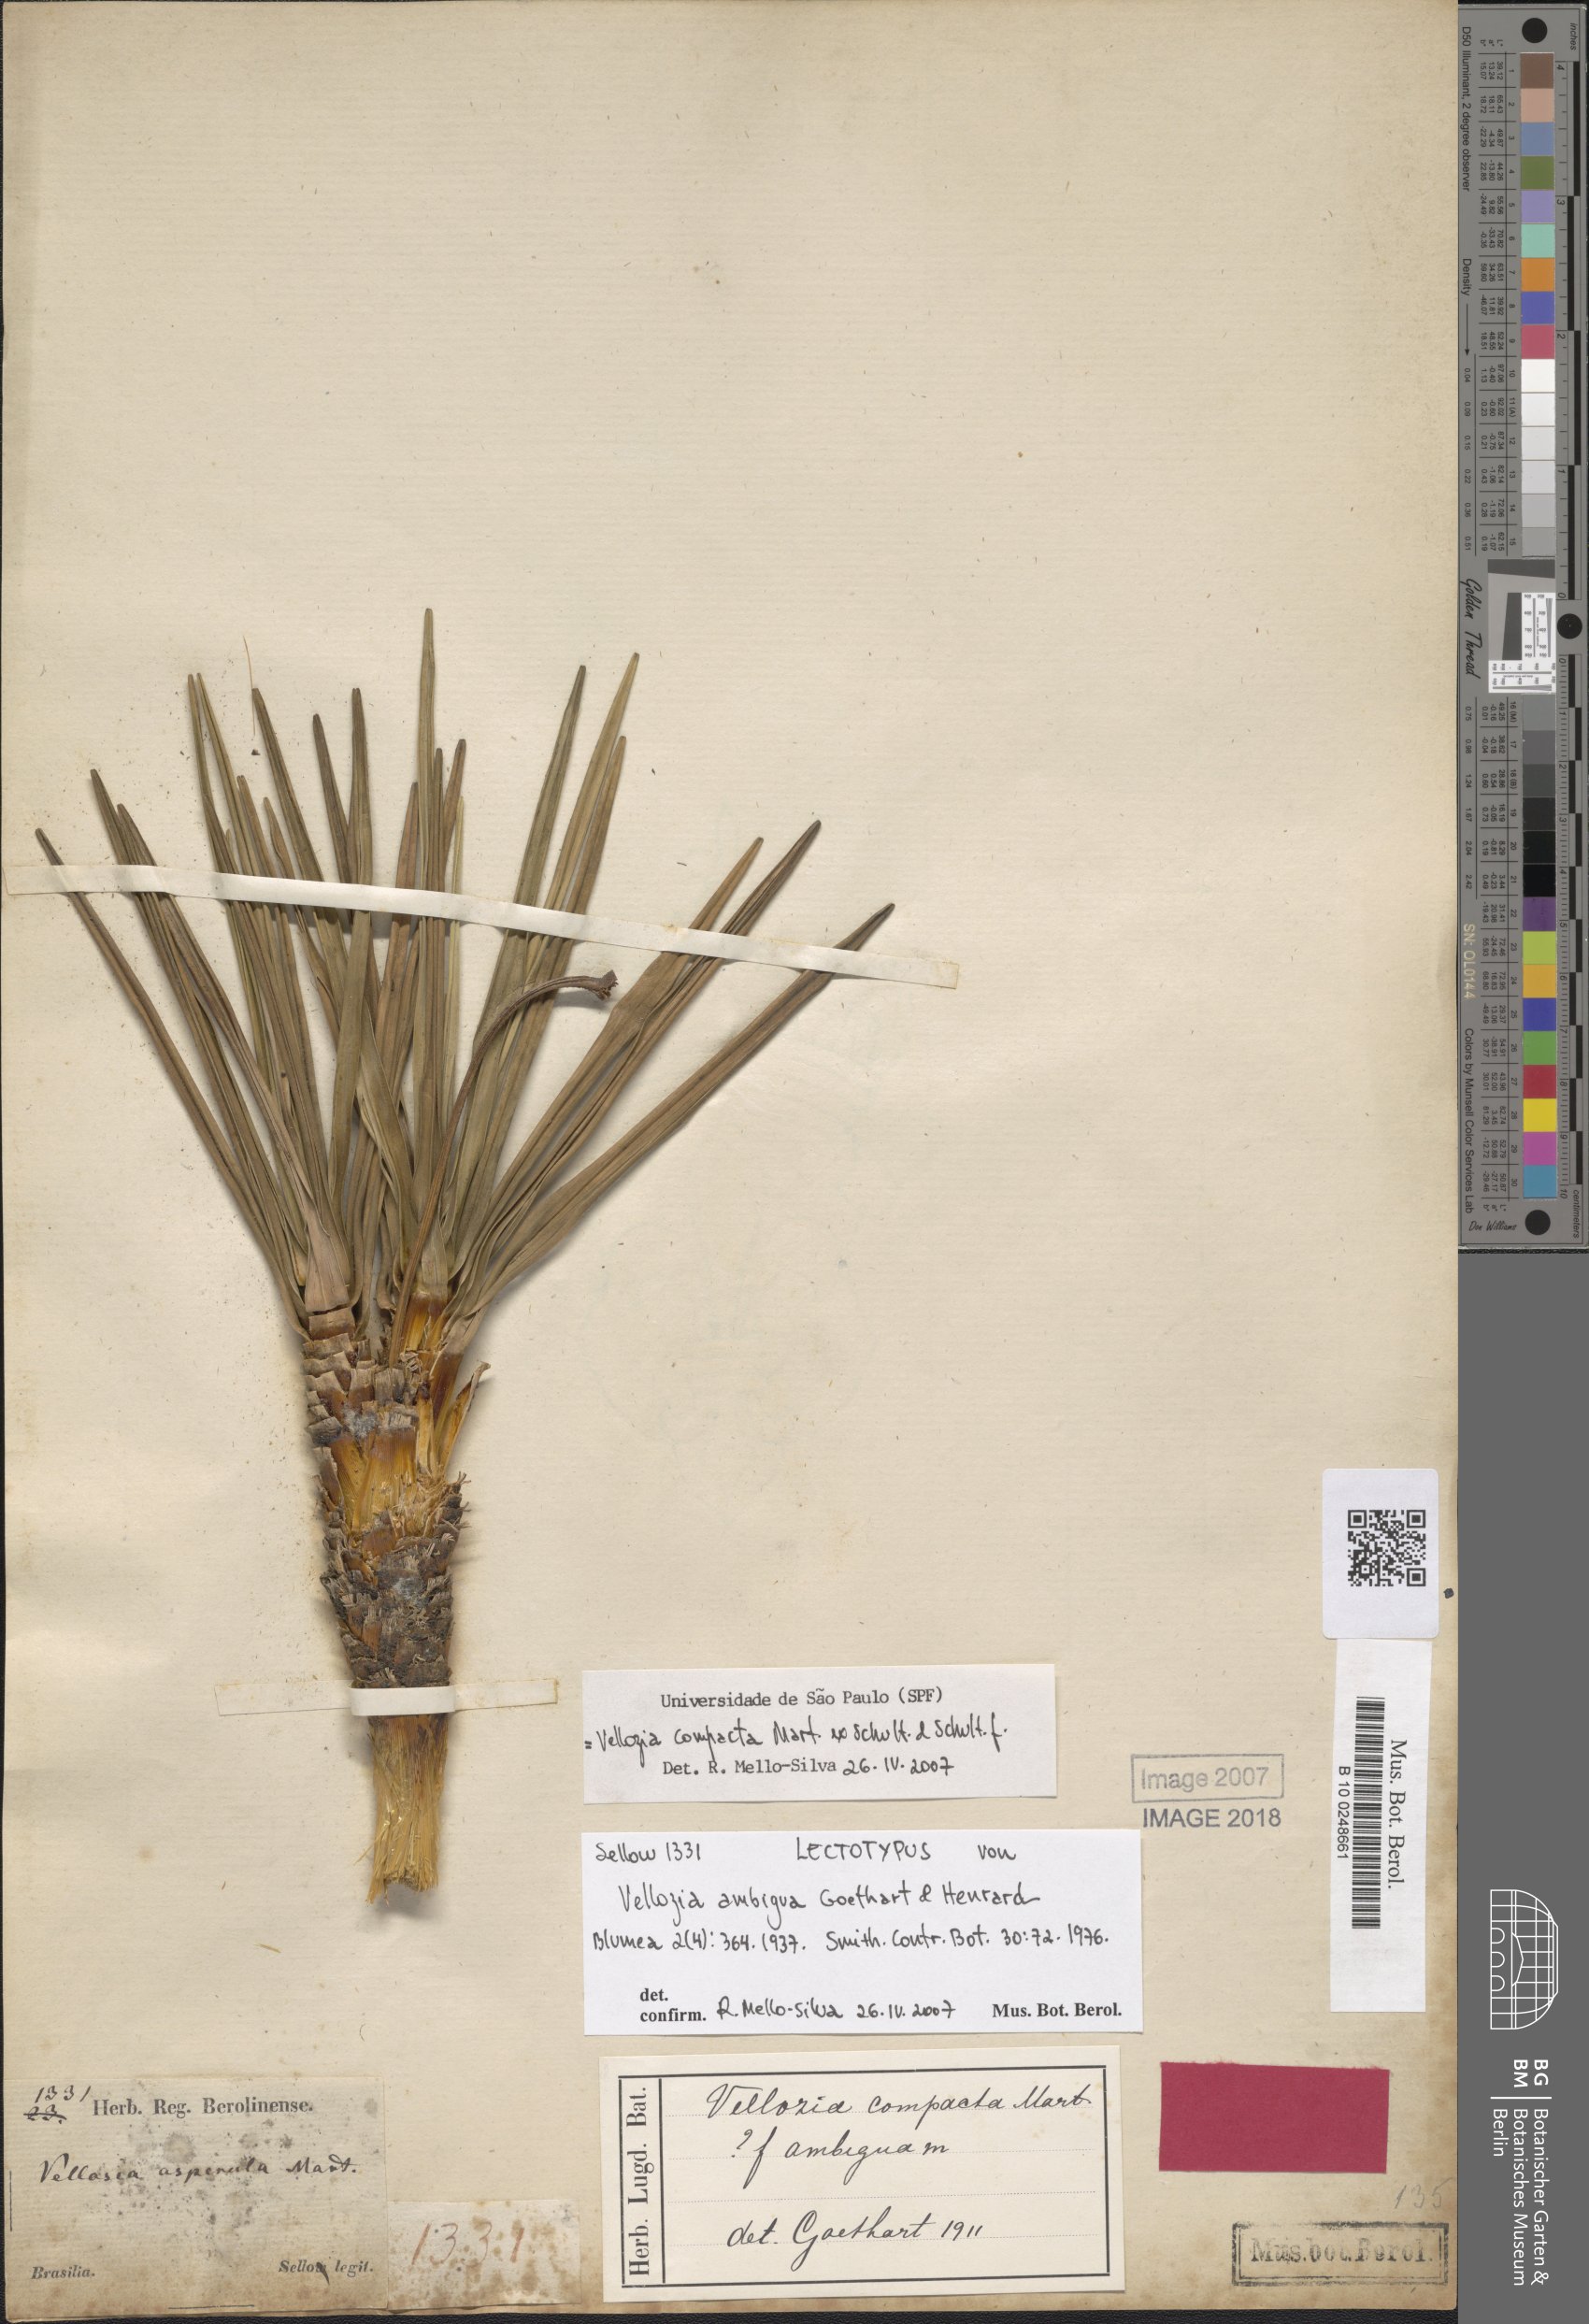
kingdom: Plantae
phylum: Tracheophyta
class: Liliopsida
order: Pandanales
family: Velloziaceae
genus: Vellozia
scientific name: Vellozia compacta
